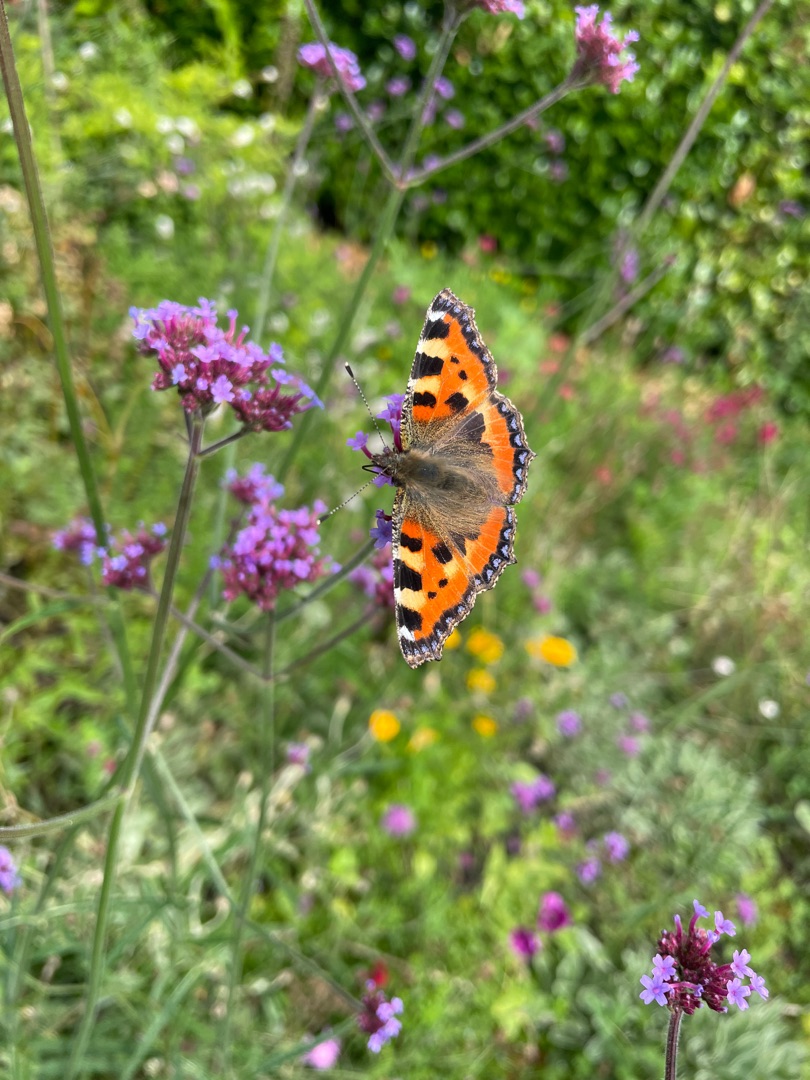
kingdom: Animalia
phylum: Arthropoda
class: Insecta
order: Lepidoptera
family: Nymphalidae
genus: Aglais
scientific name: Aglais urticae
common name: Nældens takvinge
